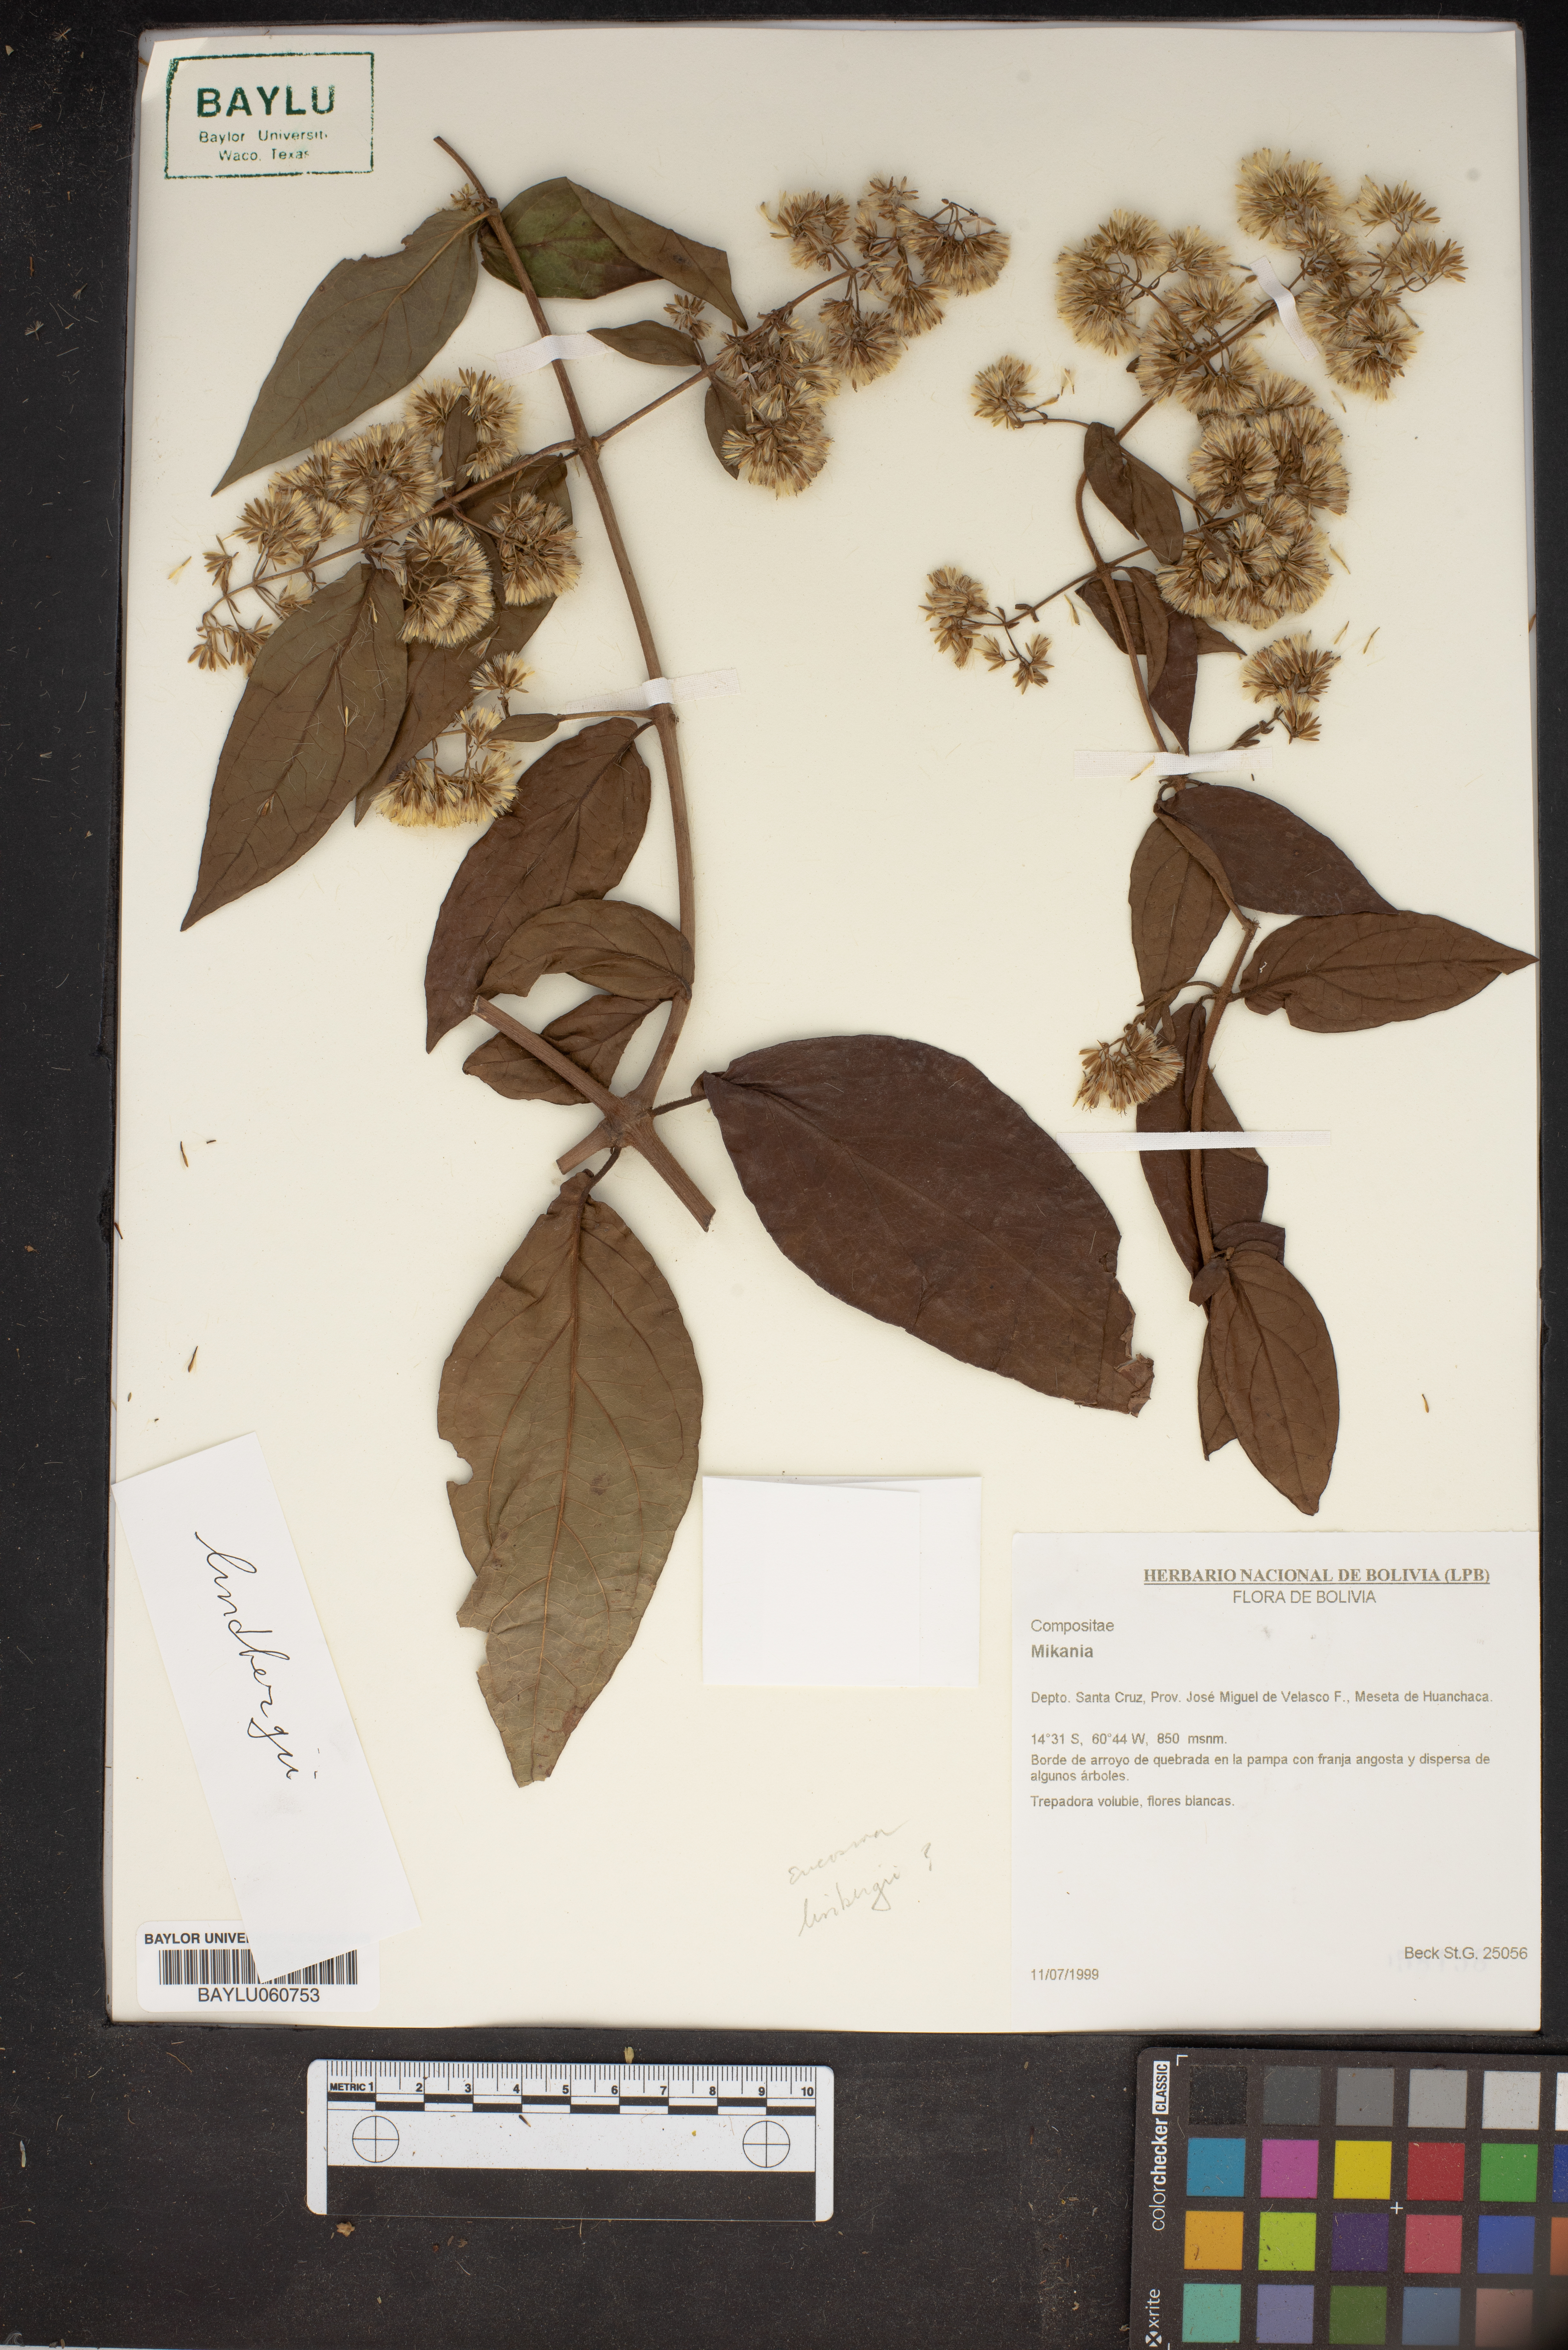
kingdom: Plantae
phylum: Tracheophyta
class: Magnoliopsida
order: Asterales
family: Asteraceae
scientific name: Asteraceae
